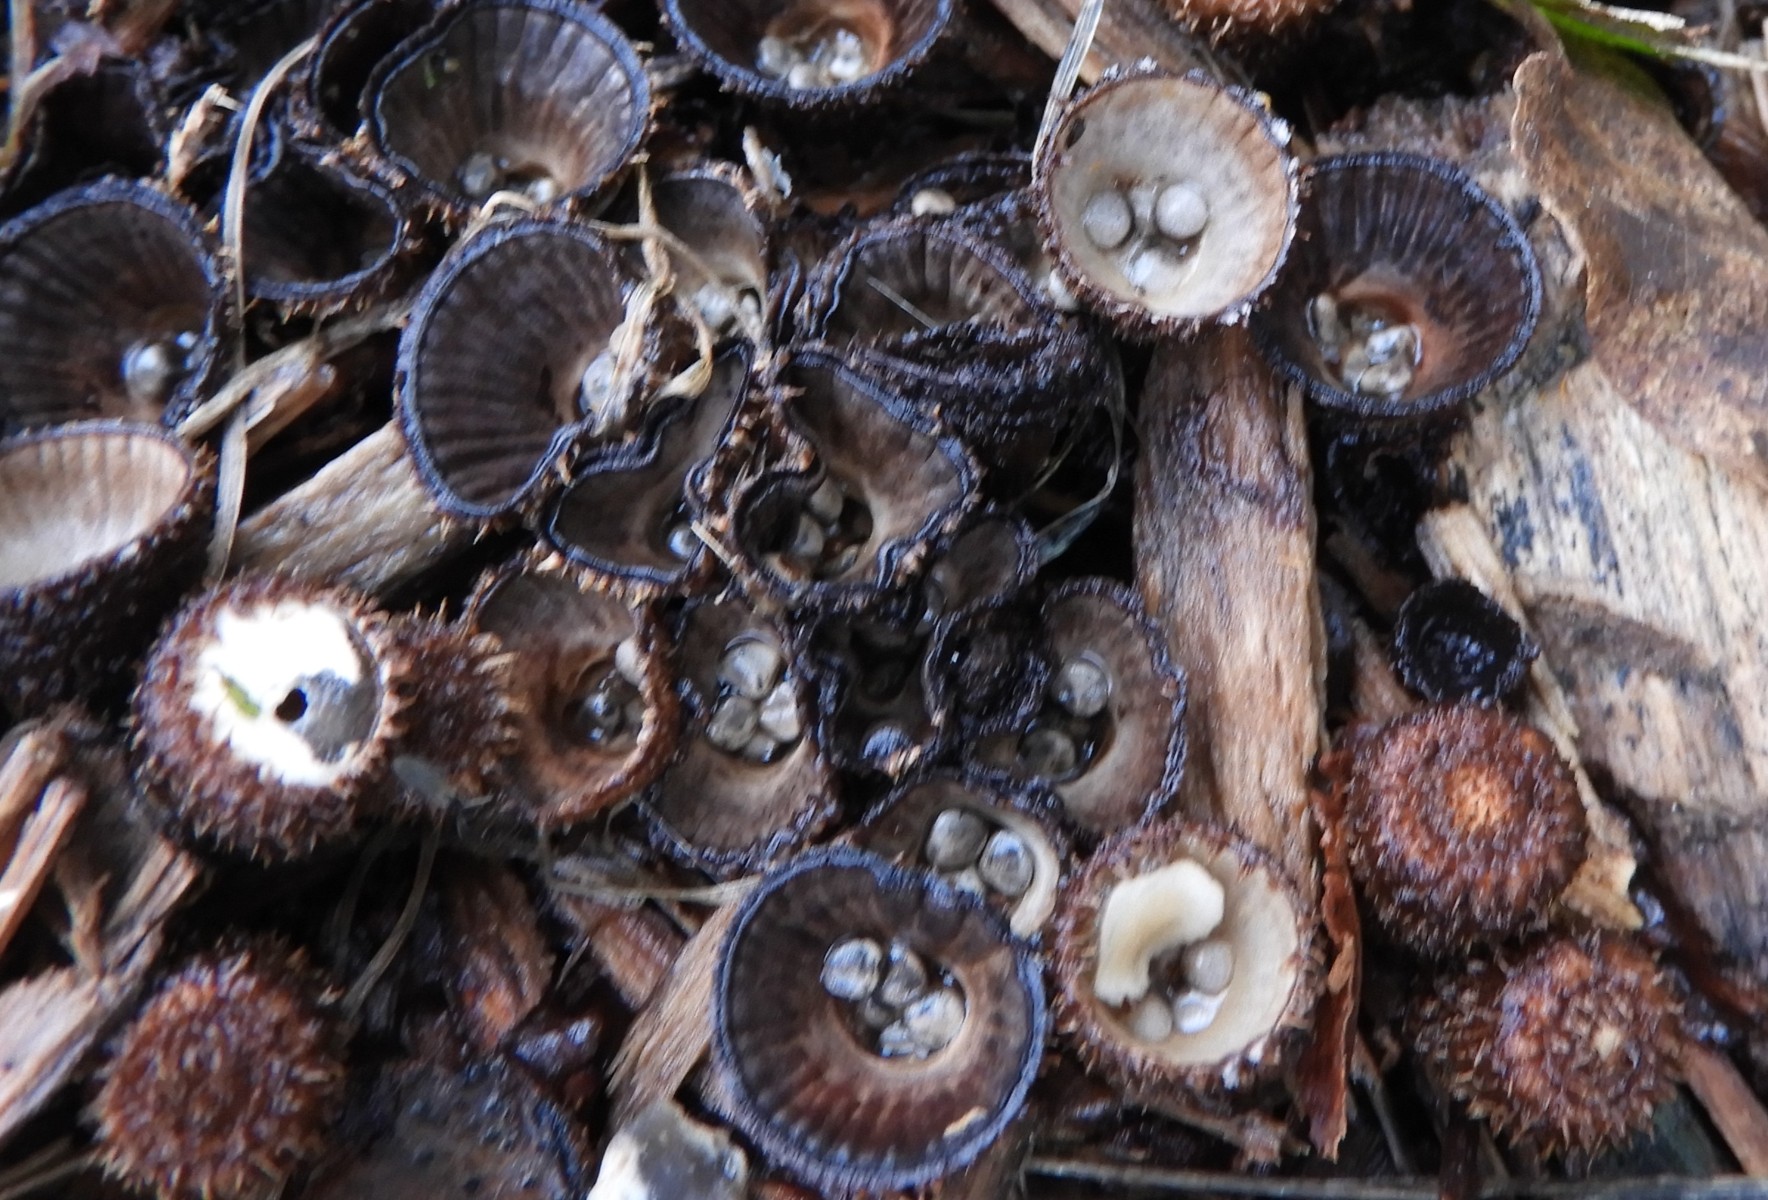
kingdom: Fungi
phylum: Basidiomycota
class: Agaricomycetes
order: Agaricales
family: Agaricaceae
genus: Cyathus
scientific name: Cyathus striatus
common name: stribet redesvamp
